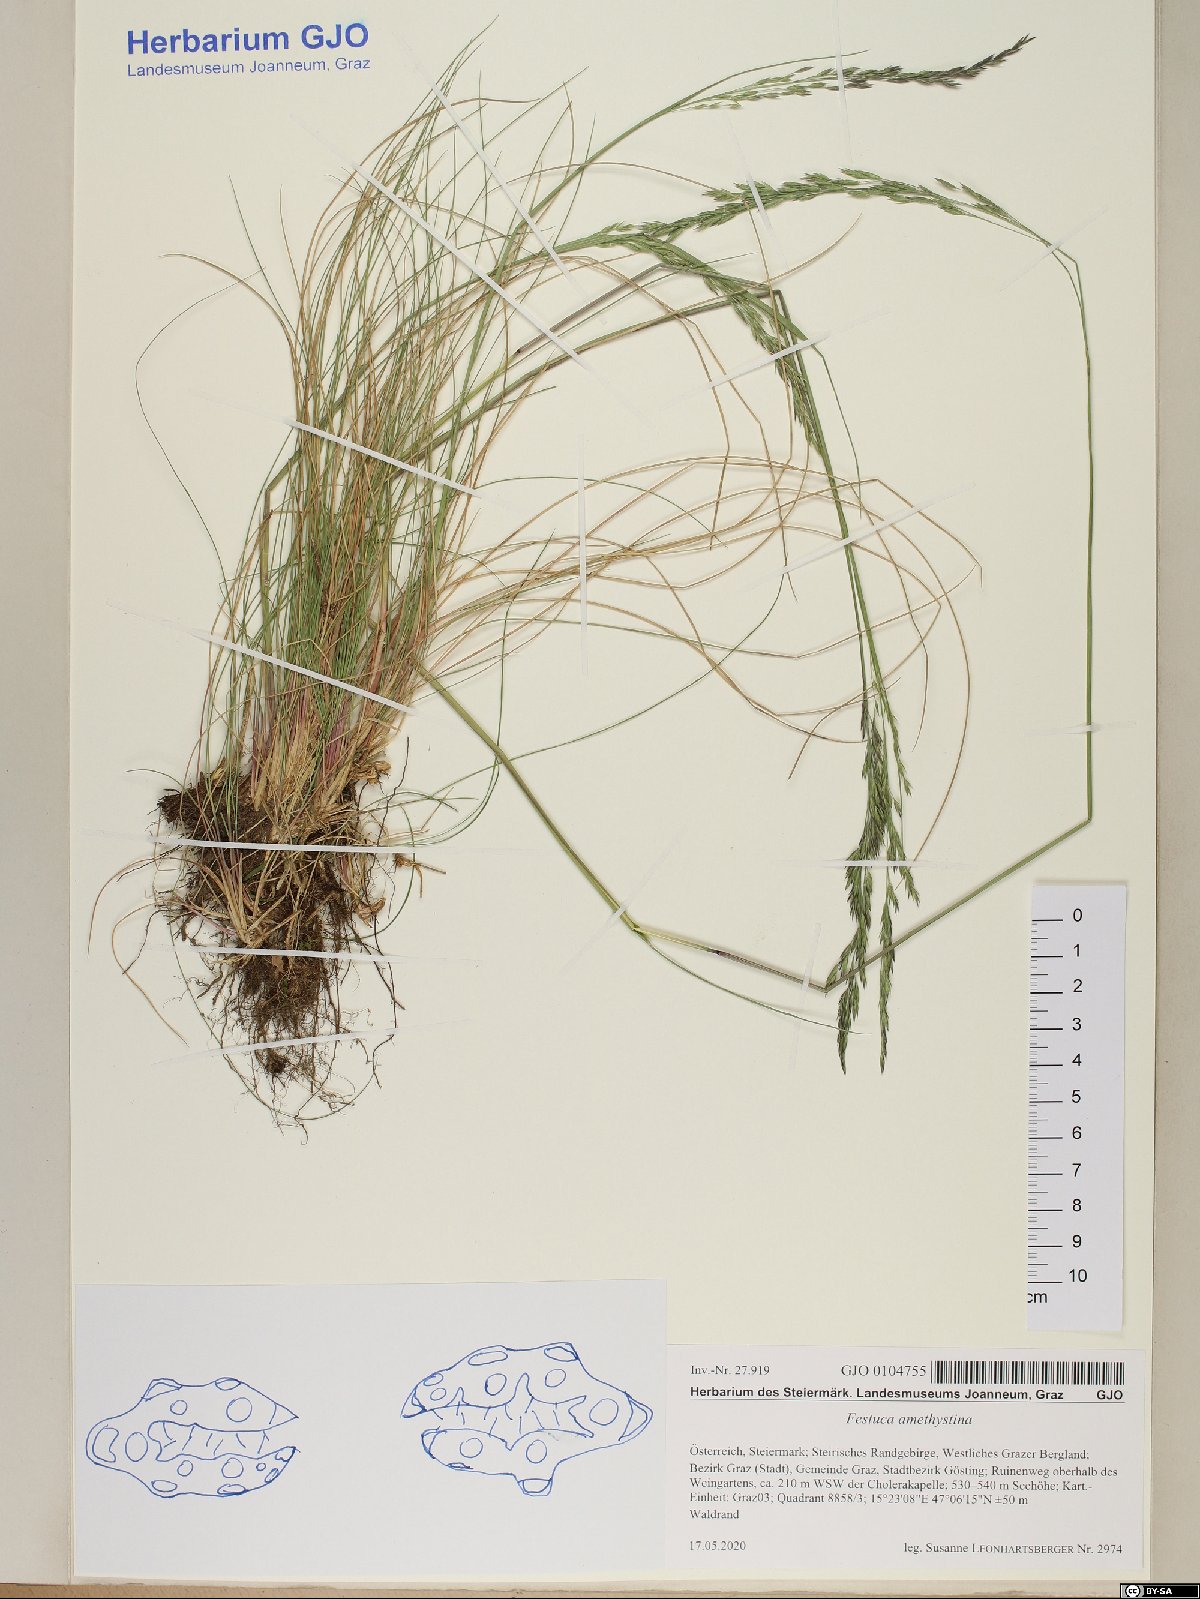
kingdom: Plantae
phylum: Tracheophyta
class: Liliopsida
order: Poales
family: Poaceae
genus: Festuca
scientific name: Festuca amethystina
